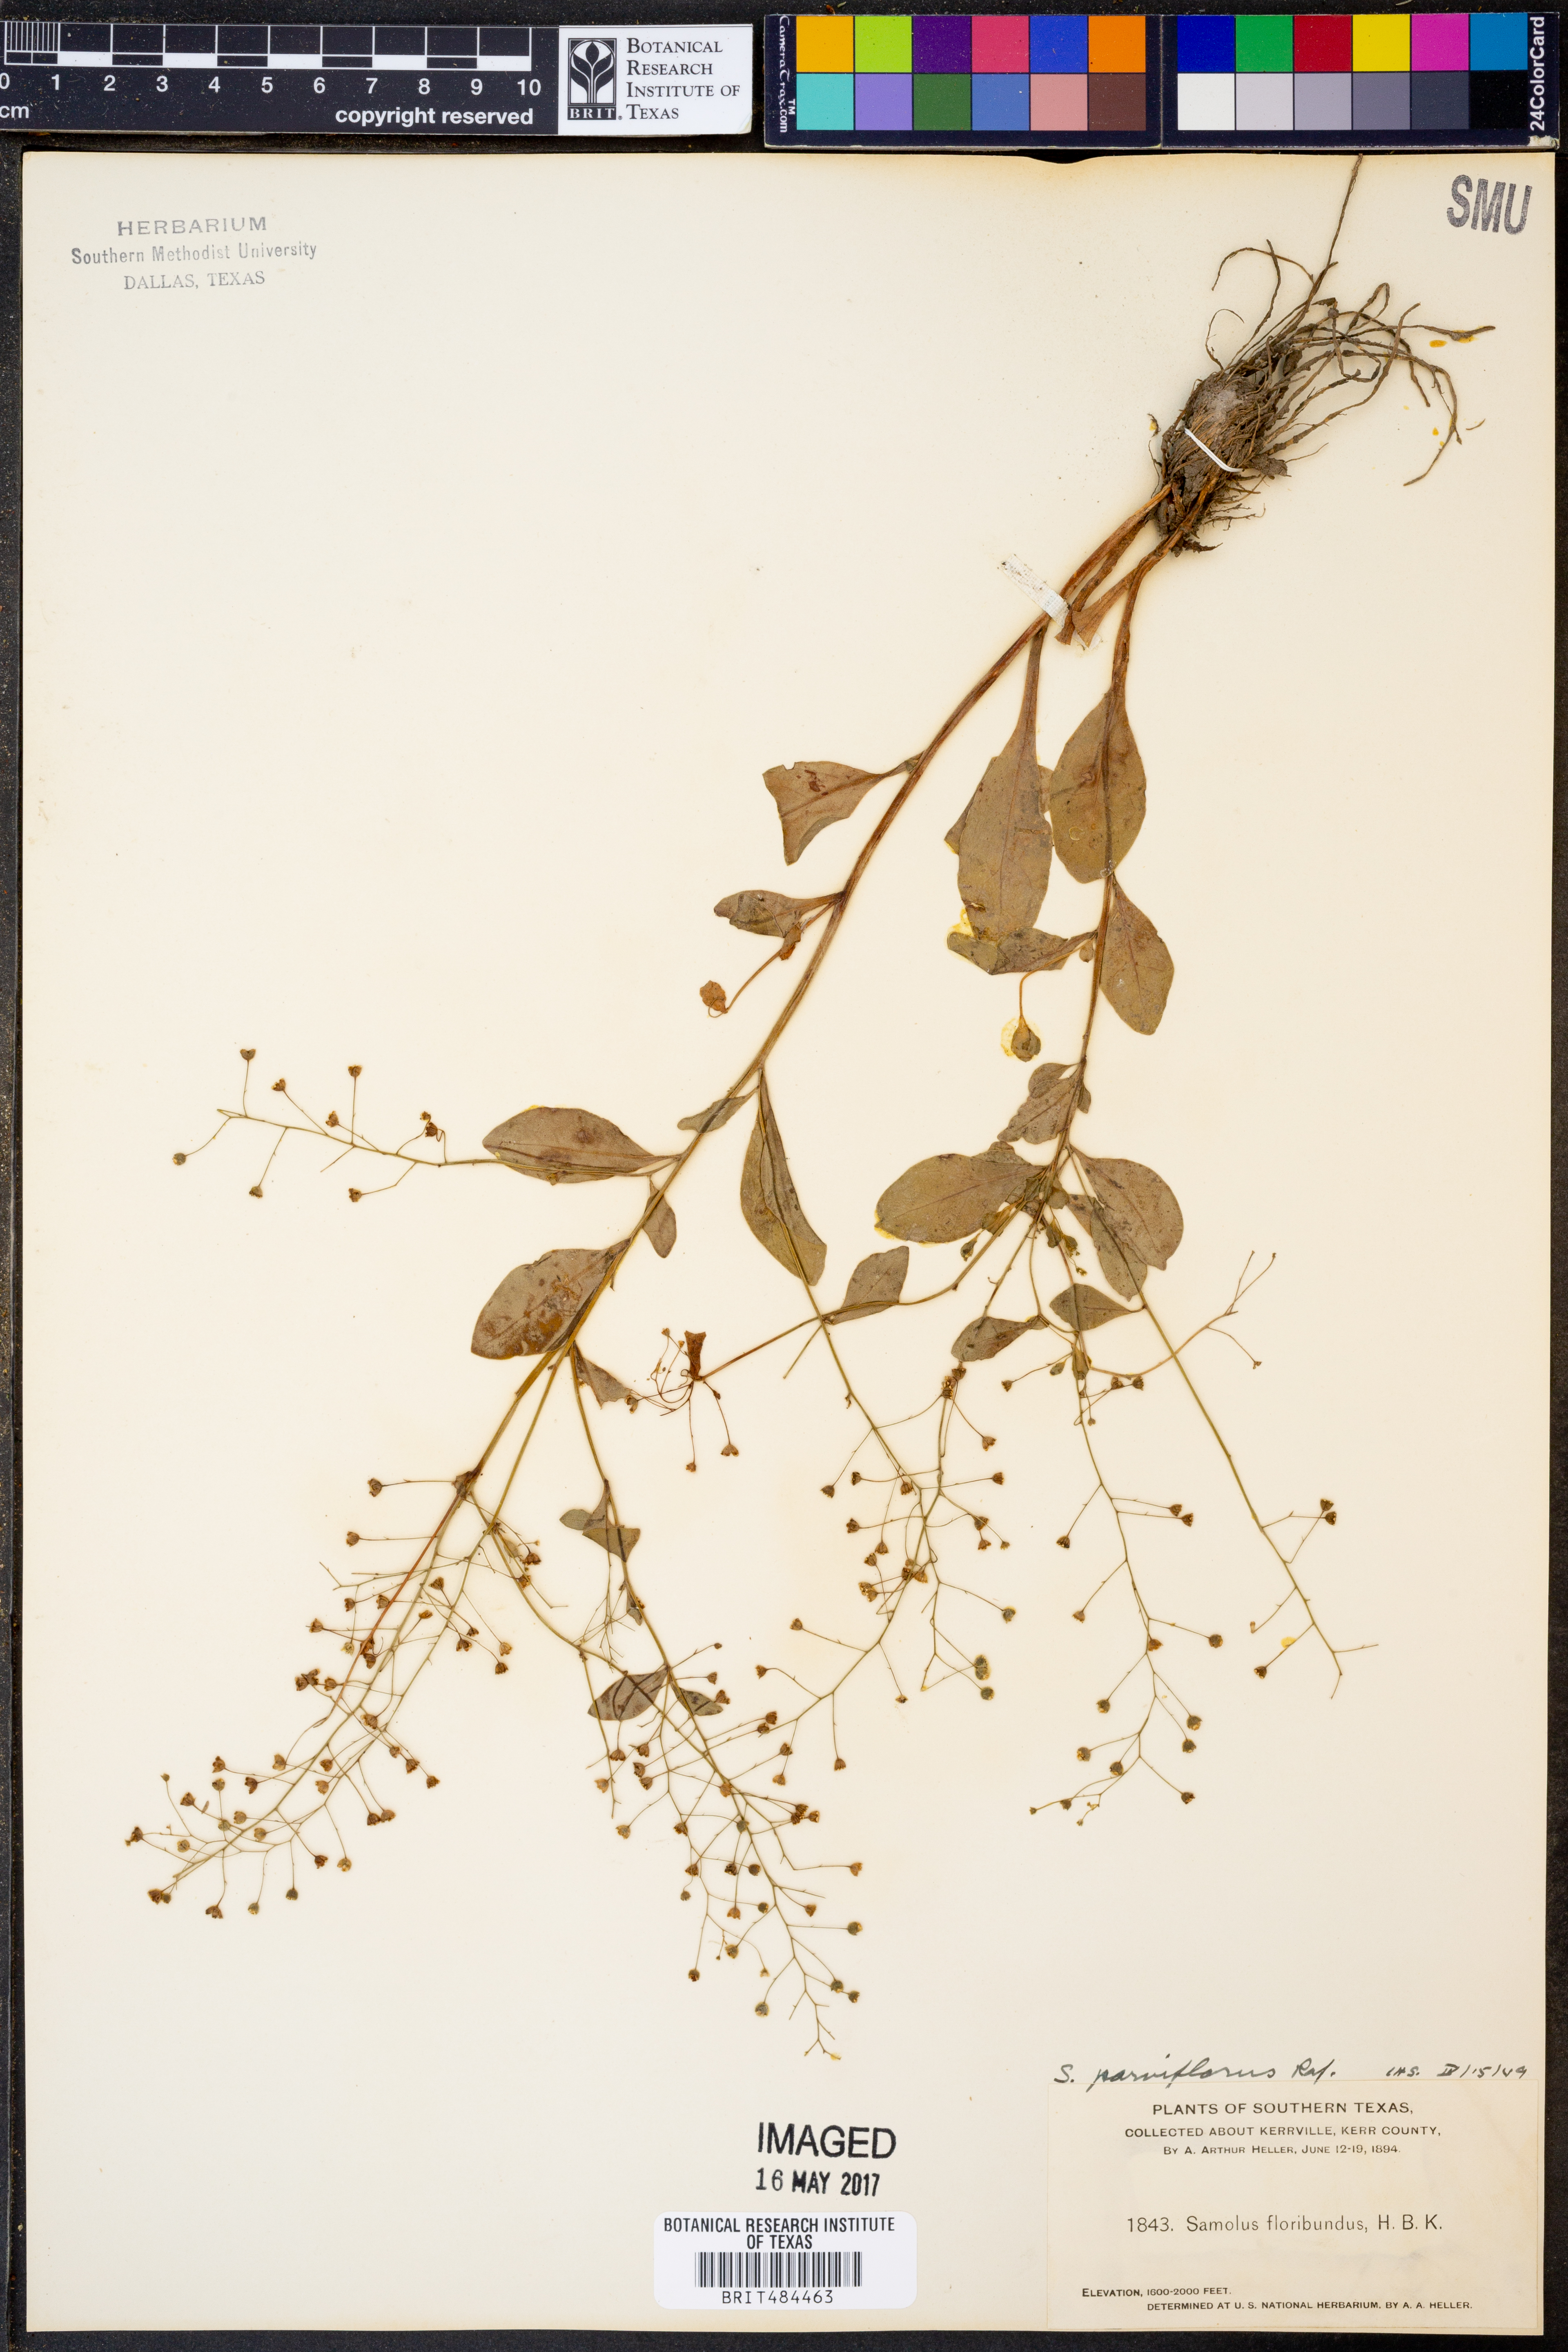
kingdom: Plantae
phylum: Tracheophyta
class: Magnoliopsida
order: Ericales
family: Primulaceae
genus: Samolus
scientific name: Samolus parviflorus
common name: False water pimpernel
